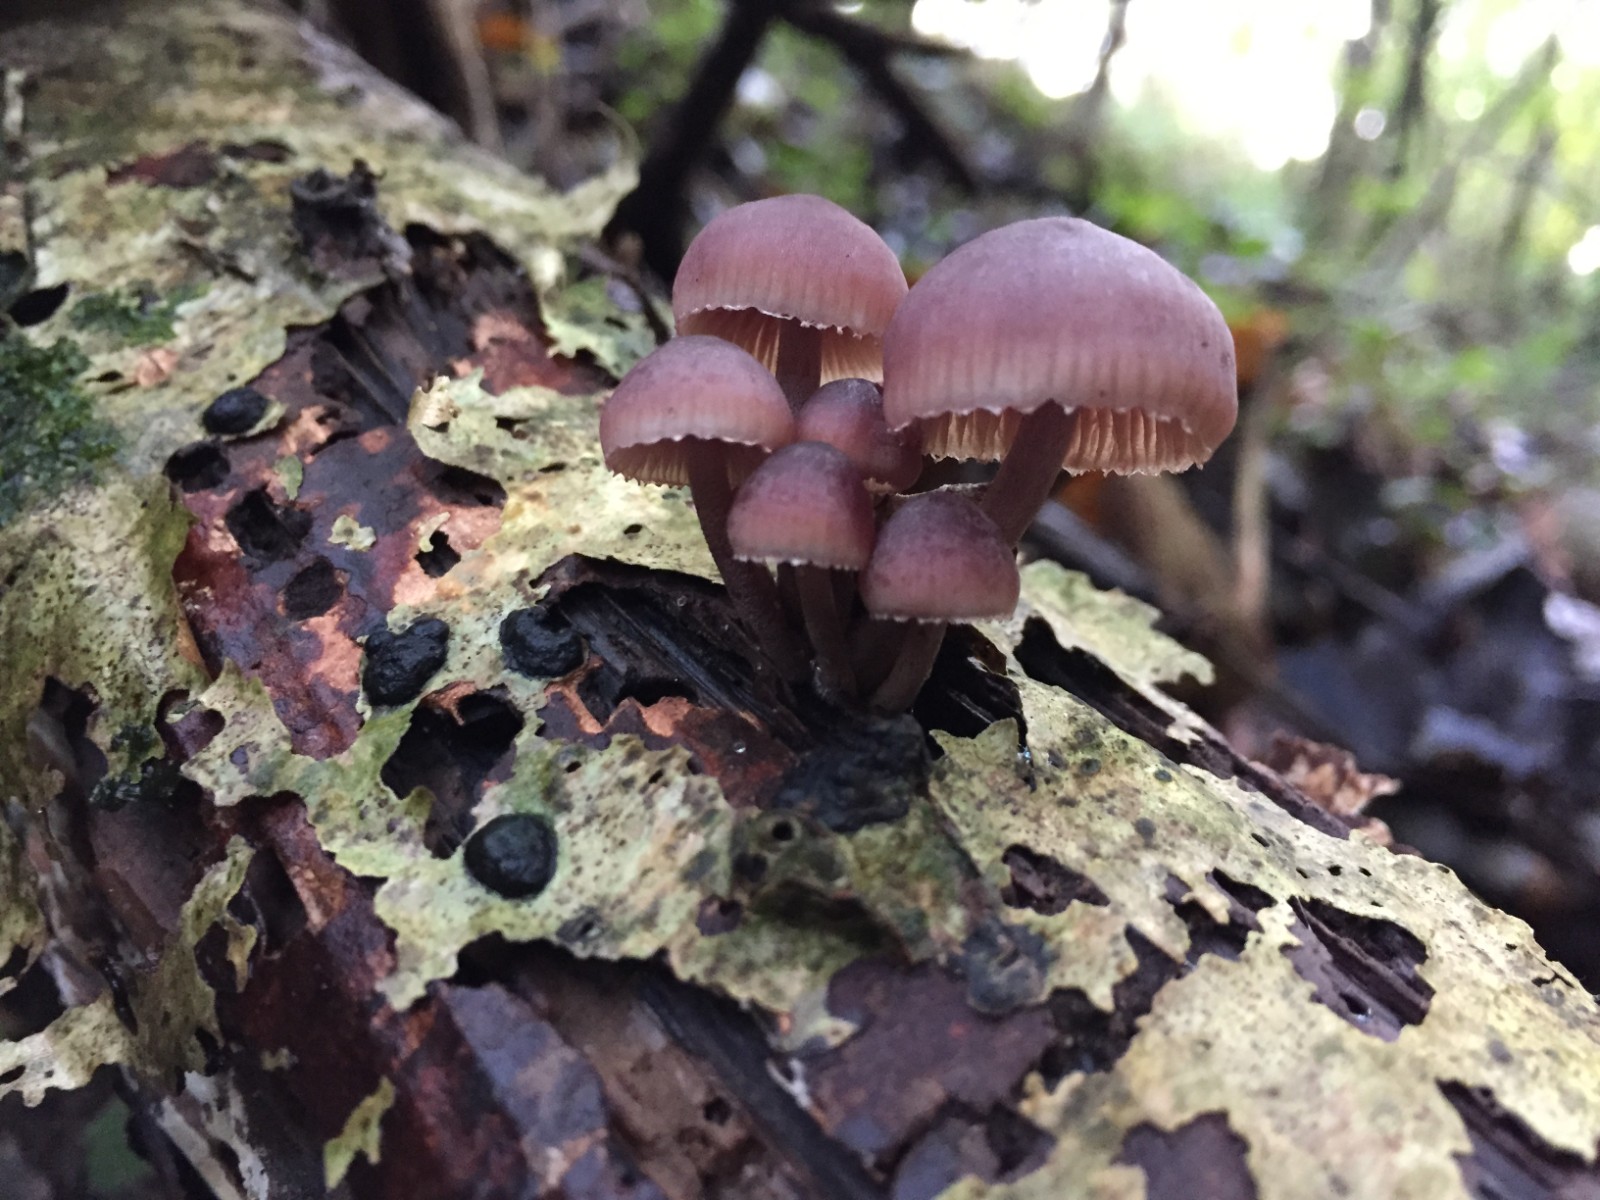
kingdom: Fungi
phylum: Basidiomycota
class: Agaricomycetes
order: Agaricales
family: Mycenaceae
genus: Mycena
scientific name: Mycena haematopus
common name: blødende huesvamp
